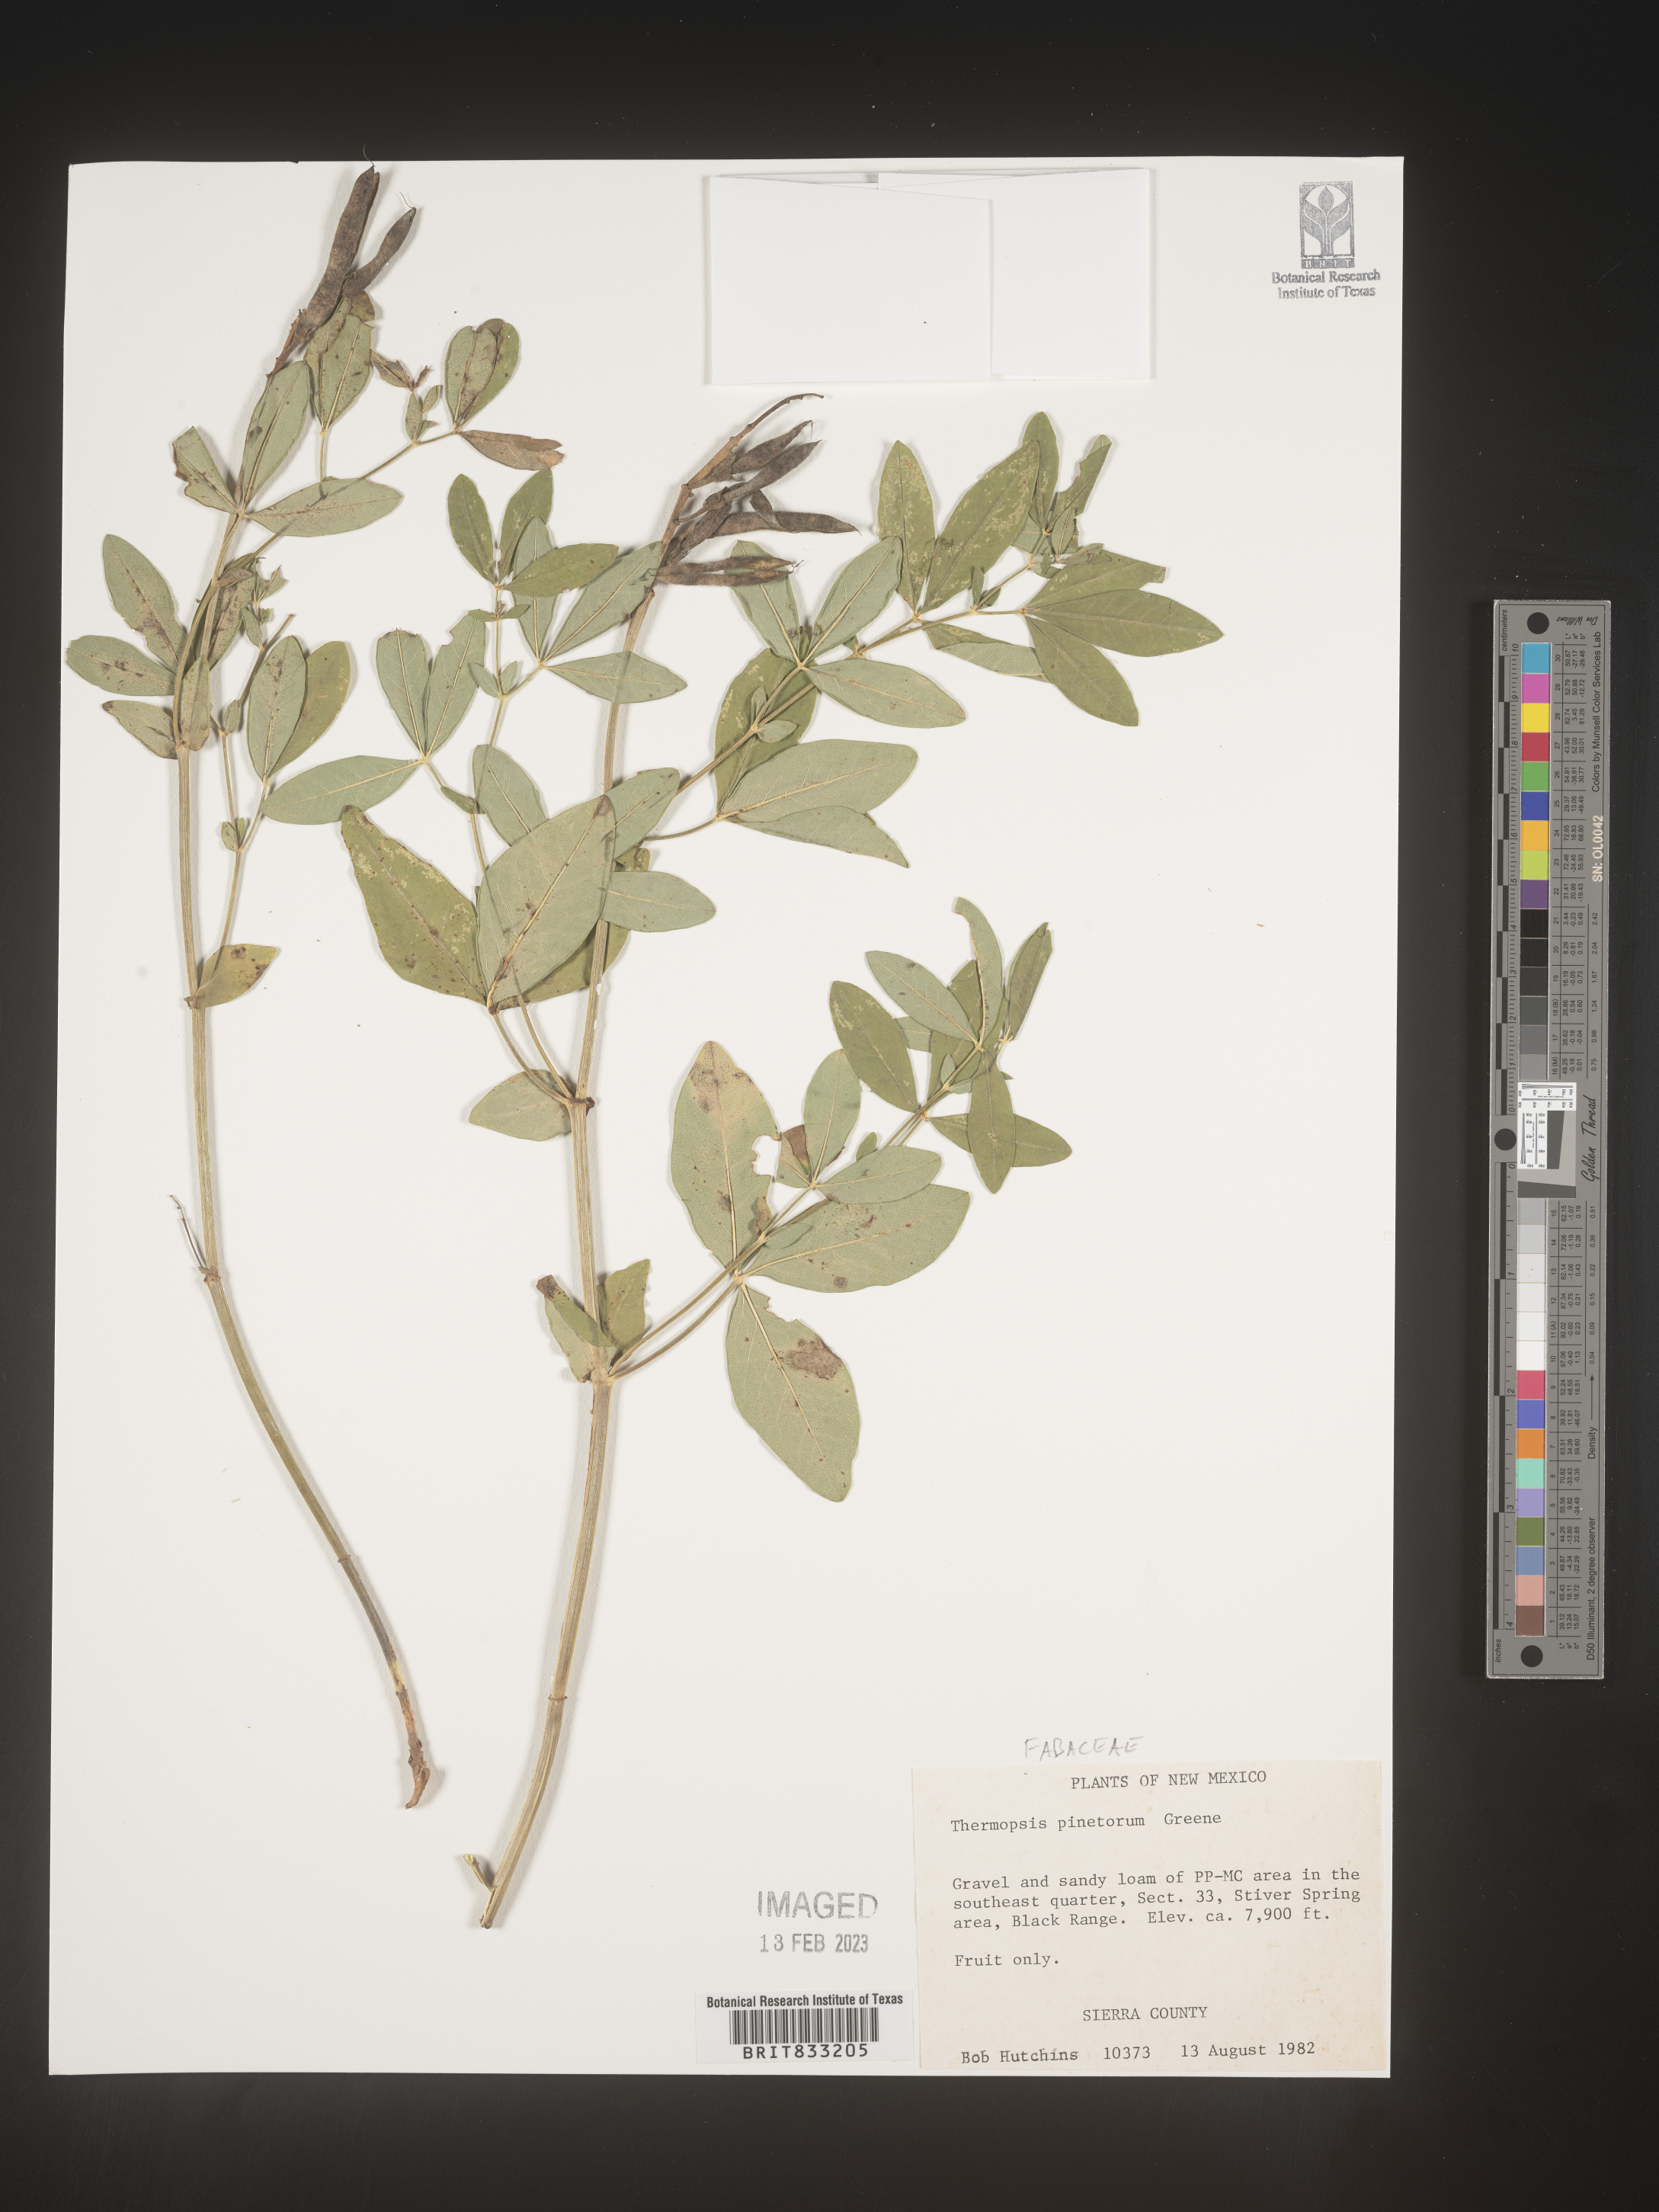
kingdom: Plantae
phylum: Tracheophyta
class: Magnoliopsida
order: Fabales
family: Fabaceae
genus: Thermopsis
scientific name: Thermopsis rhombifolia
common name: Circle-pod-pea
